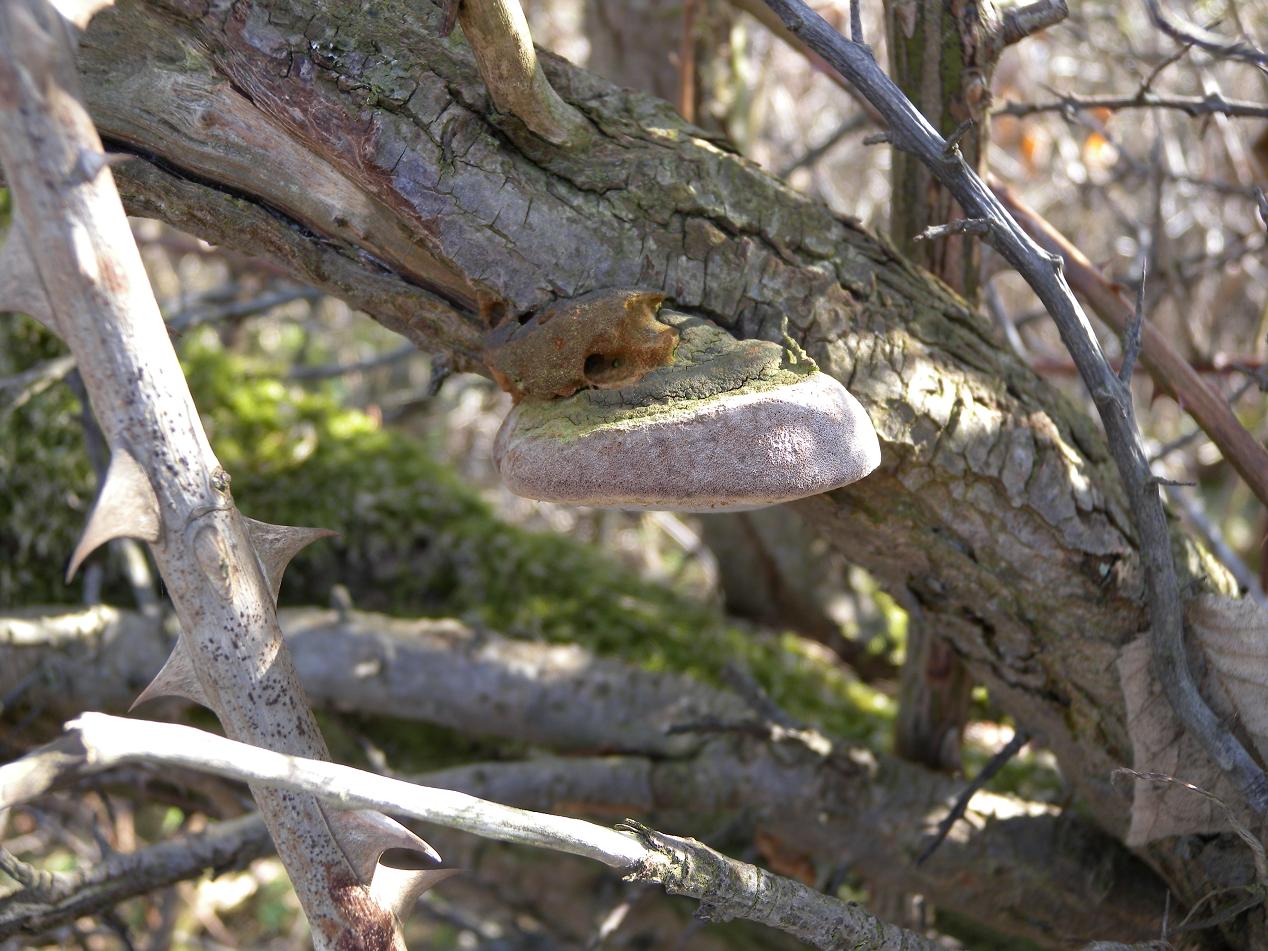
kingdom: Fungi
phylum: Basidiomycota
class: Agaricomycetes
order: Hymenochaetales
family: Hymenochaetaceae
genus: Fomitiporia
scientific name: Fomitiporia hippophaeicola
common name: havtorn-ildporesvamp
